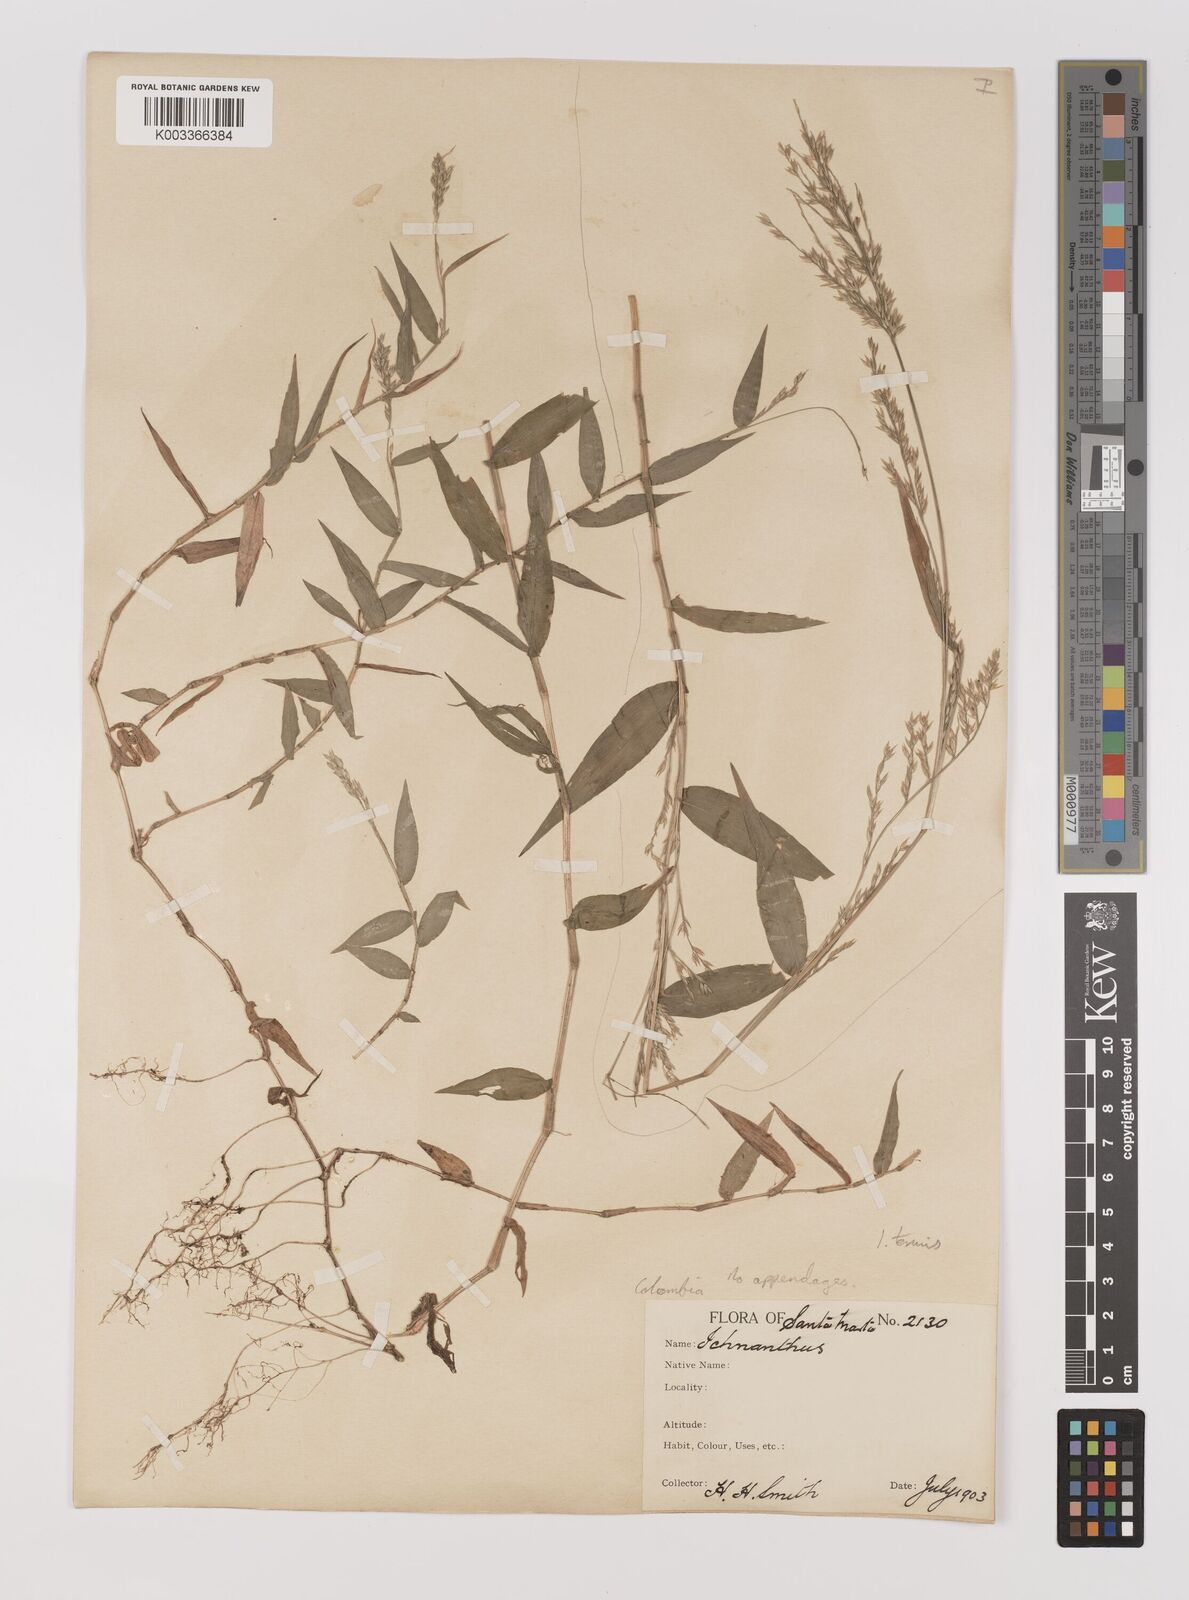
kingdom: Plantae
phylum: Tracheophyta
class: Liliopsida
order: Poales
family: Poaceae
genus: Ichnanthus
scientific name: Ichnanthus tenuis
